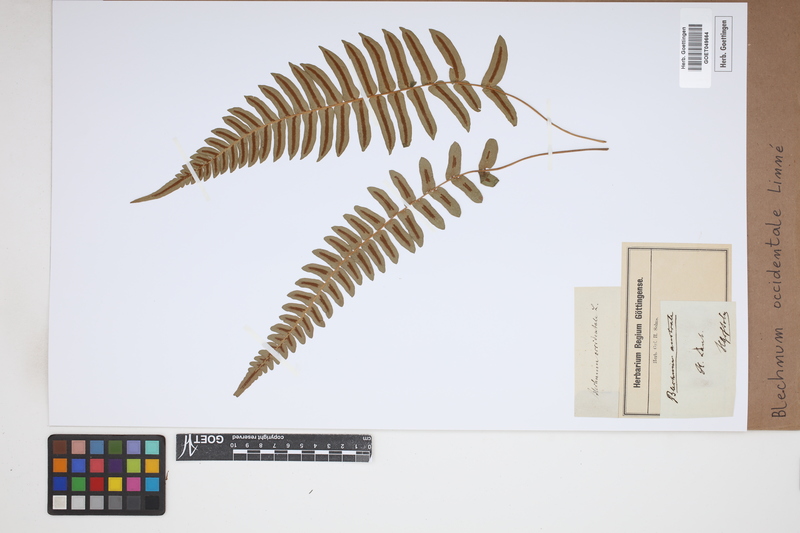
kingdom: Plantae
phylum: Tracheophyta
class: Polypodiopsida
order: Polypodiales
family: Blechnaceae
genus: Blechnum
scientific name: Blechnum occidentale
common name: Hammock fern
